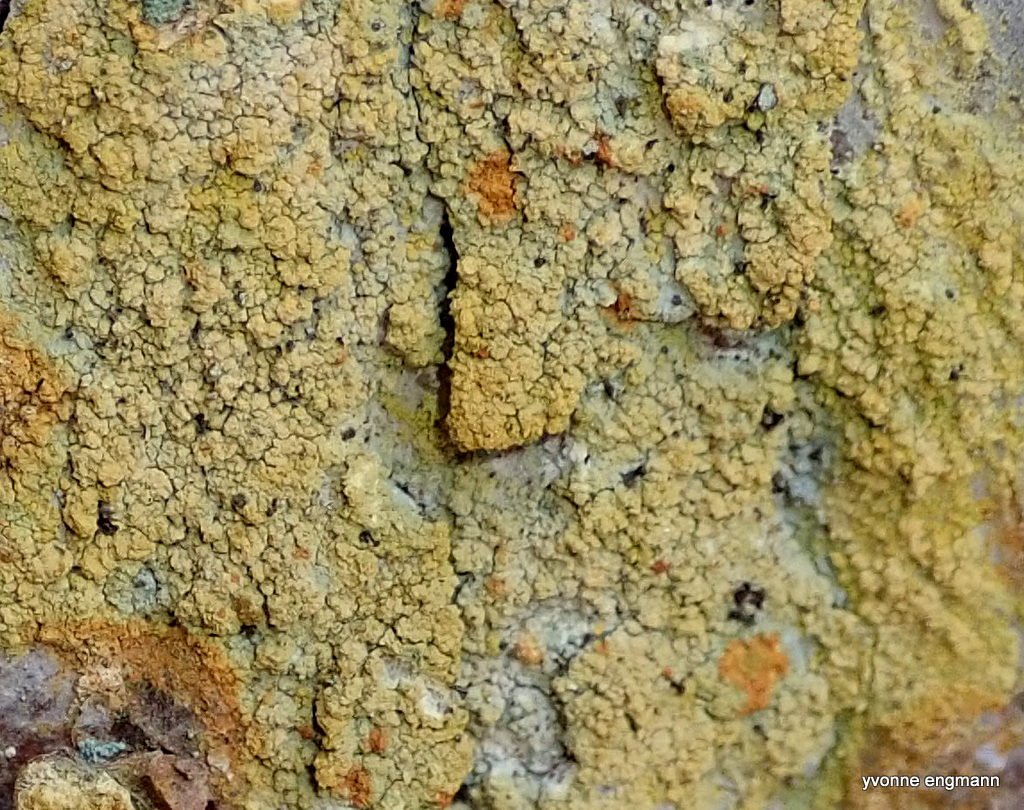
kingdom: Fungi
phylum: Ascomycota
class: Coniocybomycetes
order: Coniocybales
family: Coniocybaceae
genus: Chaenotheca
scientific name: Chaenotheca ferruginea
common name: rustbrun knappenålslav
